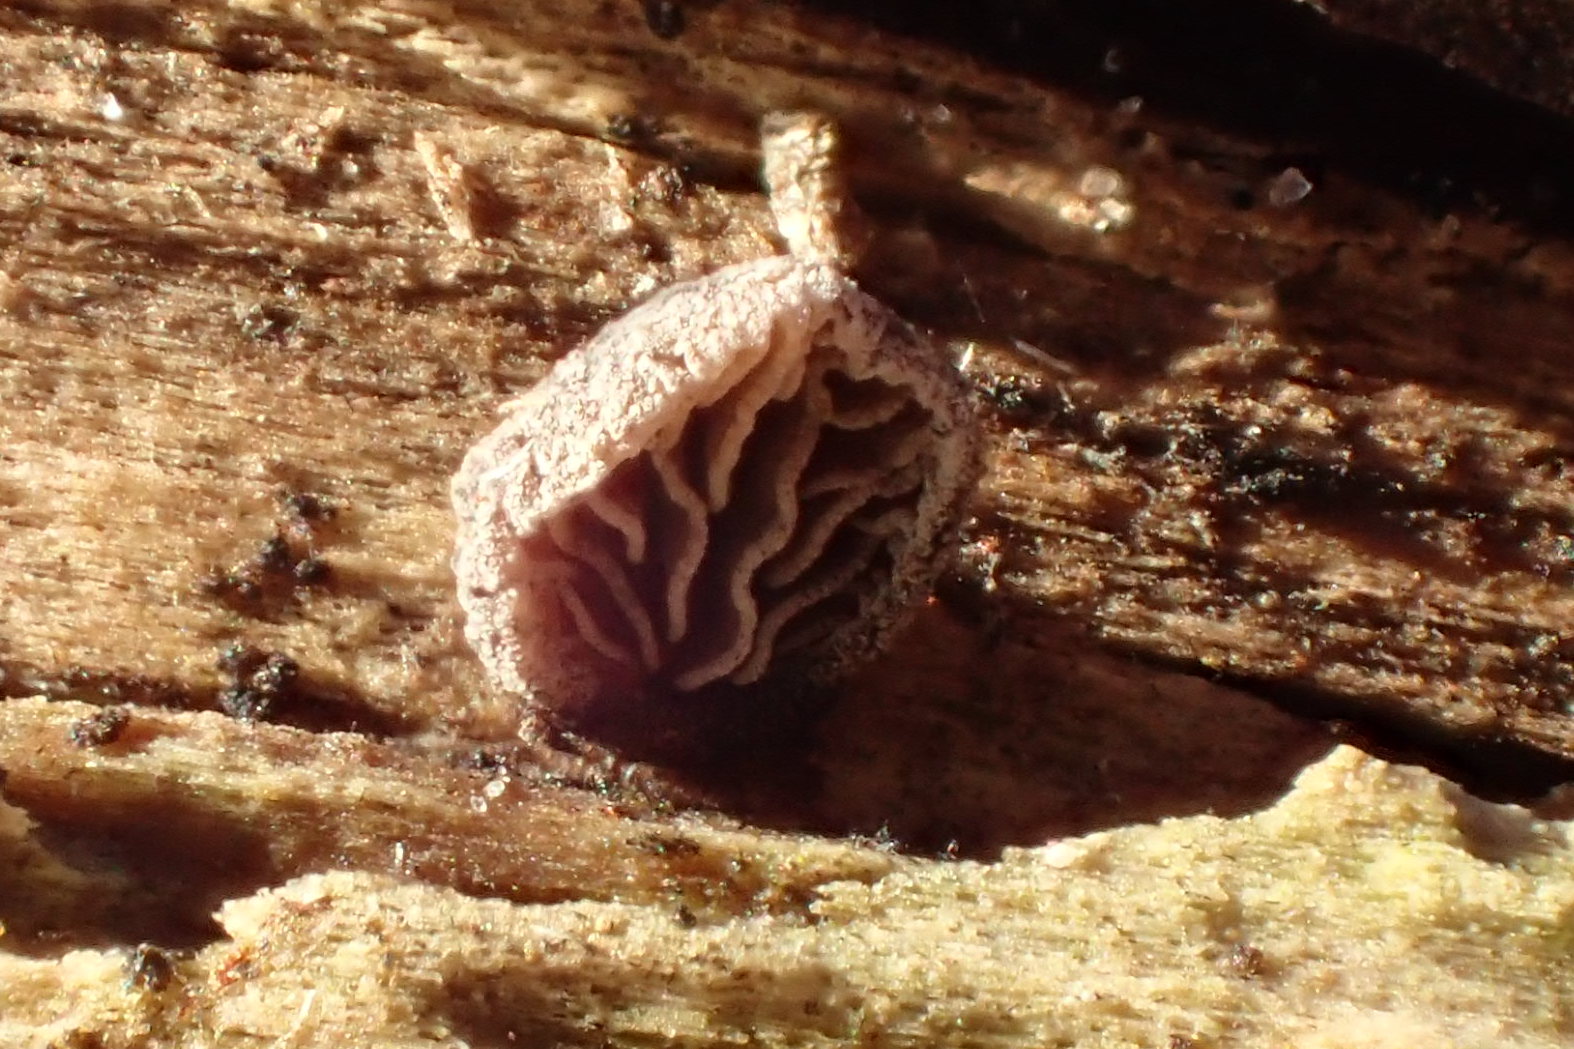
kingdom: Fungi
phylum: Basidiomycota
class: Agaricomycetes
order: Agaricales
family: Pleurotaceae
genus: Resupinatus
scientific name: Resupinatus trichotis
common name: mørkfiltet barkhat
